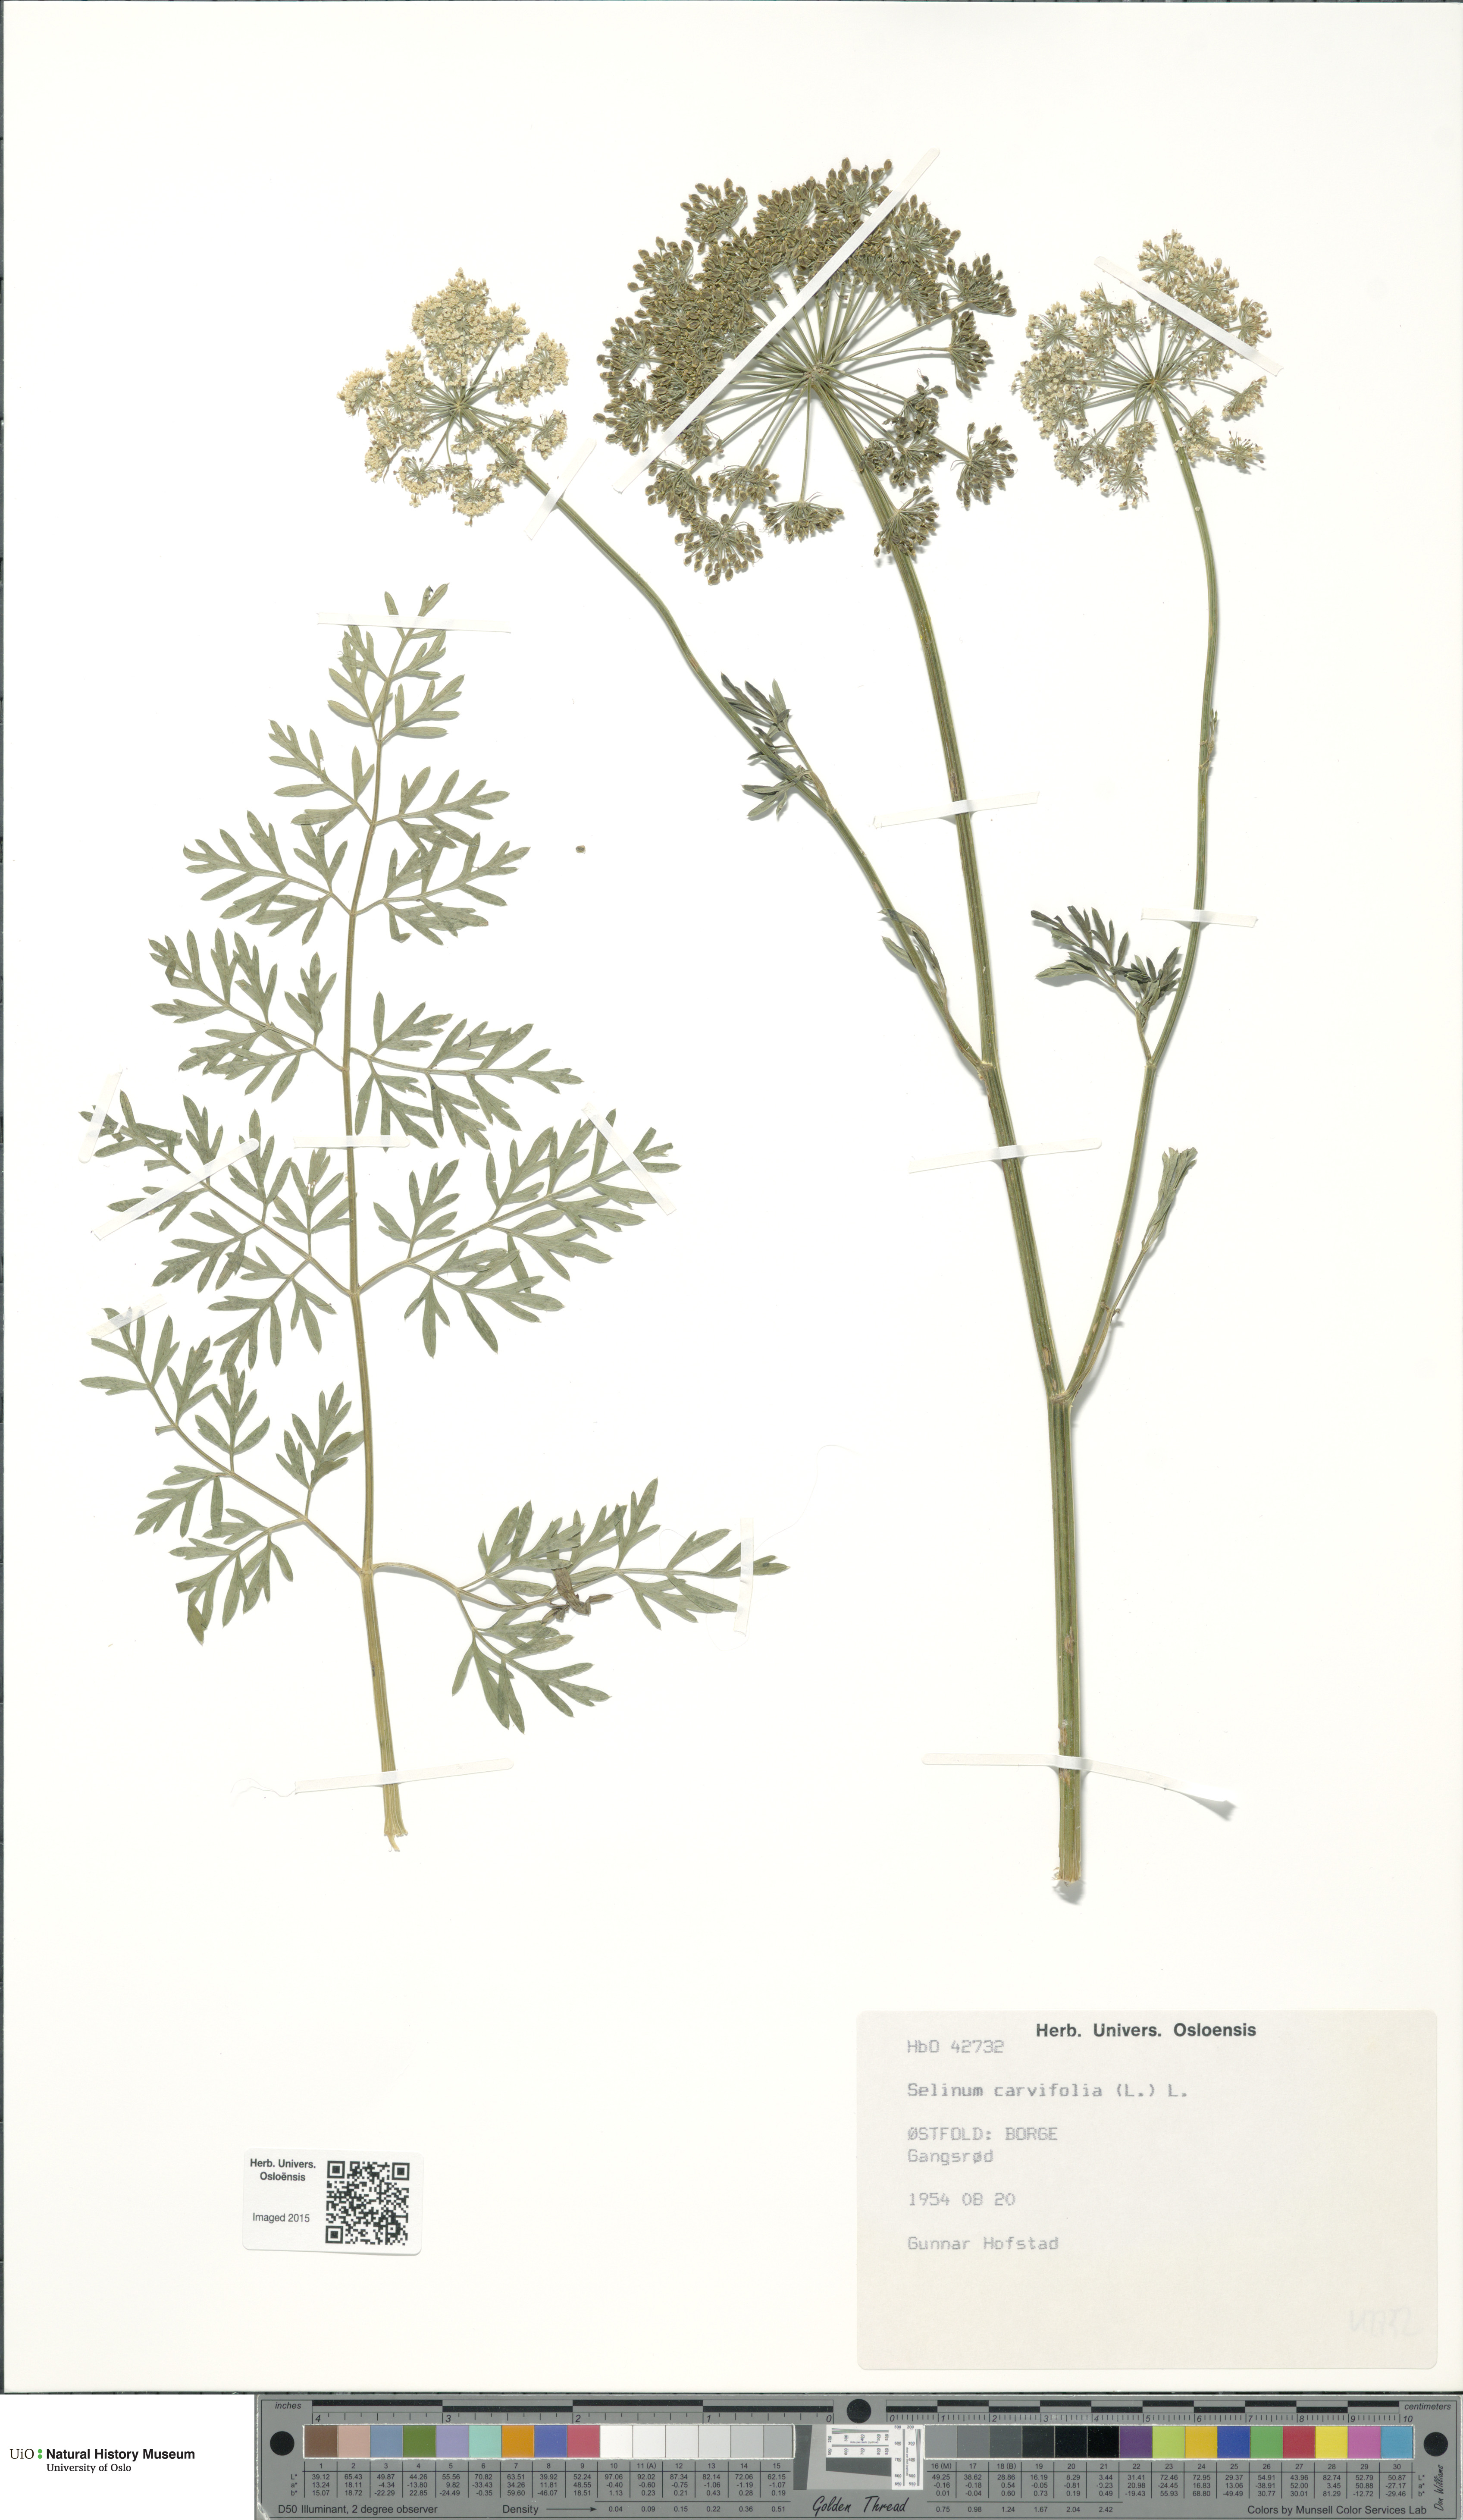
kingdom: Plantae
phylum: Tracheophyta
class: Magnoliopsida
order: Apiales
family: Apiaceae
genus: Selinum
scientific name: Selinum carvifolia
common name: Cambridge milk-parsley
